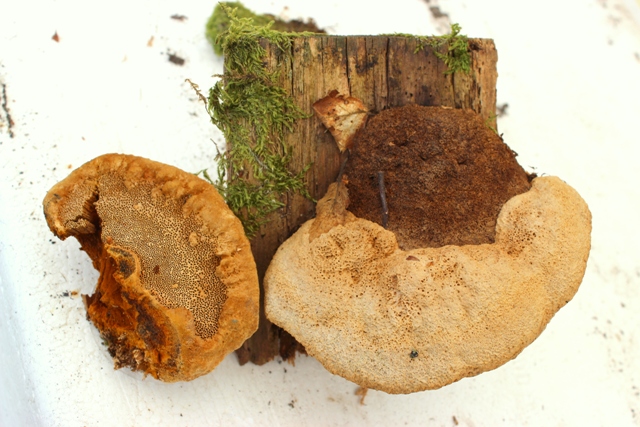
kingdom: Fungi
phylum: Basidiomycota
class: Agaricomycetes
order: Gloeophyllales
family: Gloeophyllaceae
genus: Gloeophyllum
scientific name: Gloeophyllum odoratum
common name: duftende korkhat
